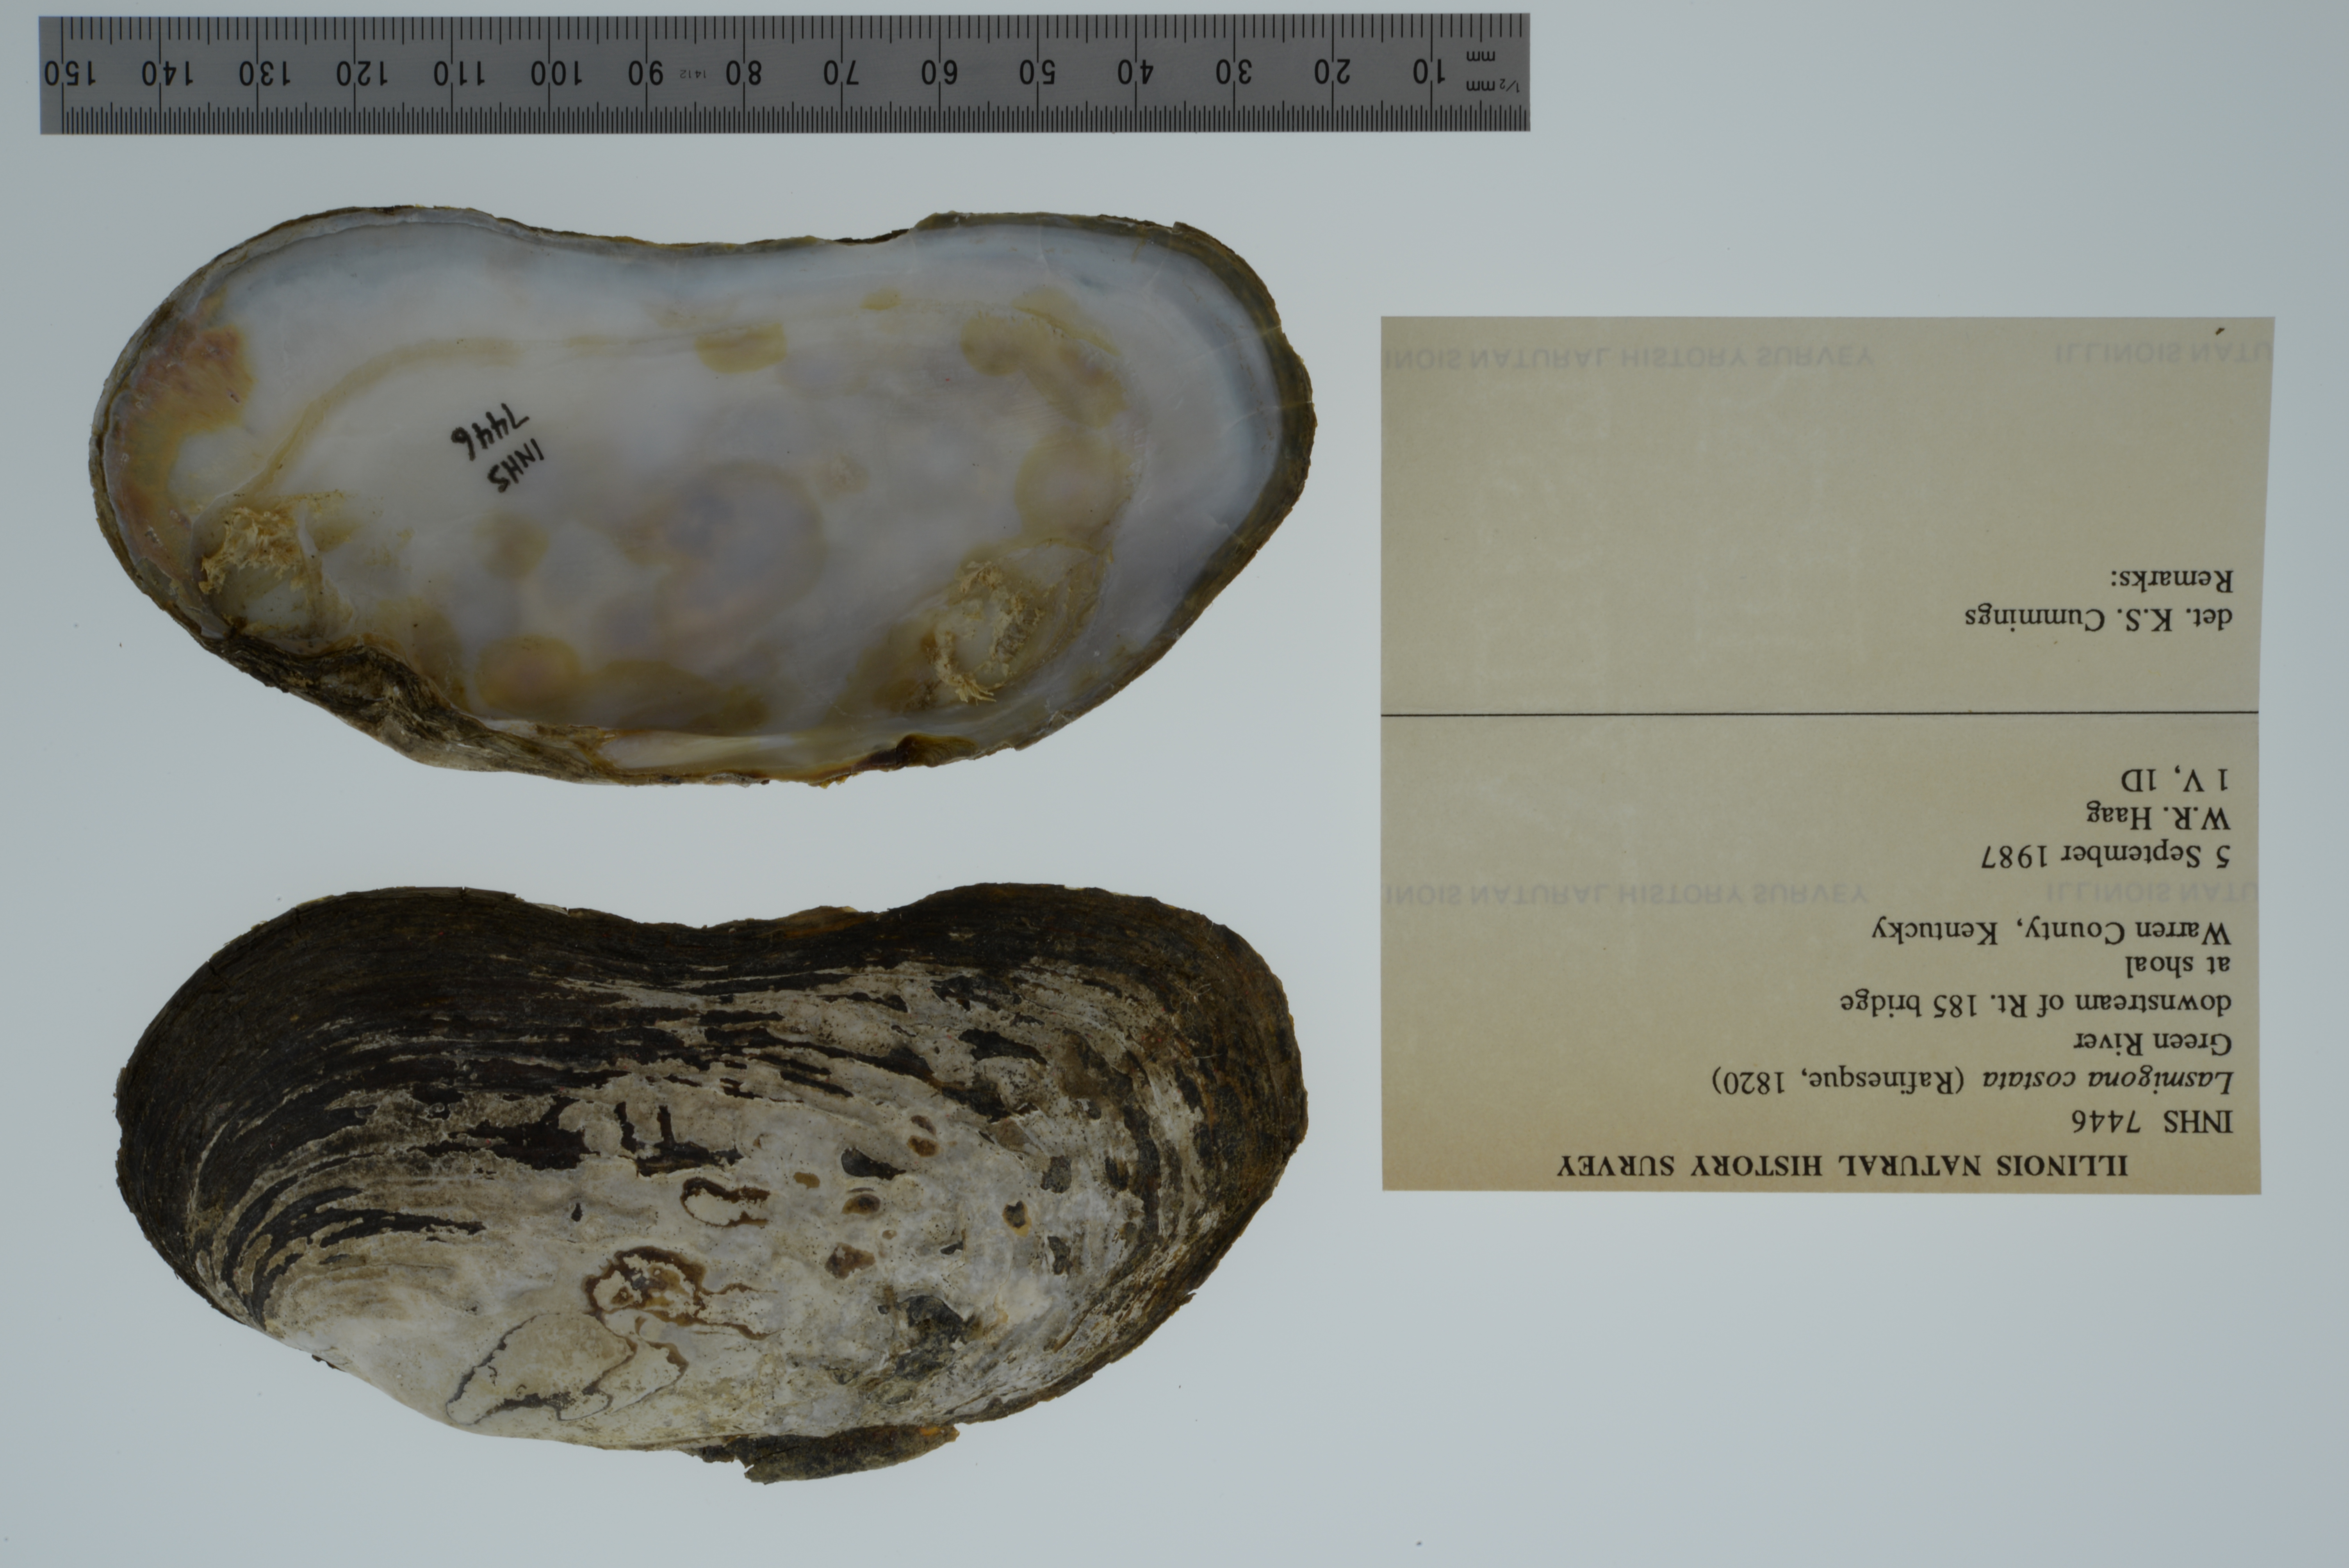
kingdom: Animalia
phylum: Mollusca
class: Bivalvia
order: Unionida
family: Unionidae
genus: Lasmigona
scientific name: Lasmigona costata
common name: Flutedshell
